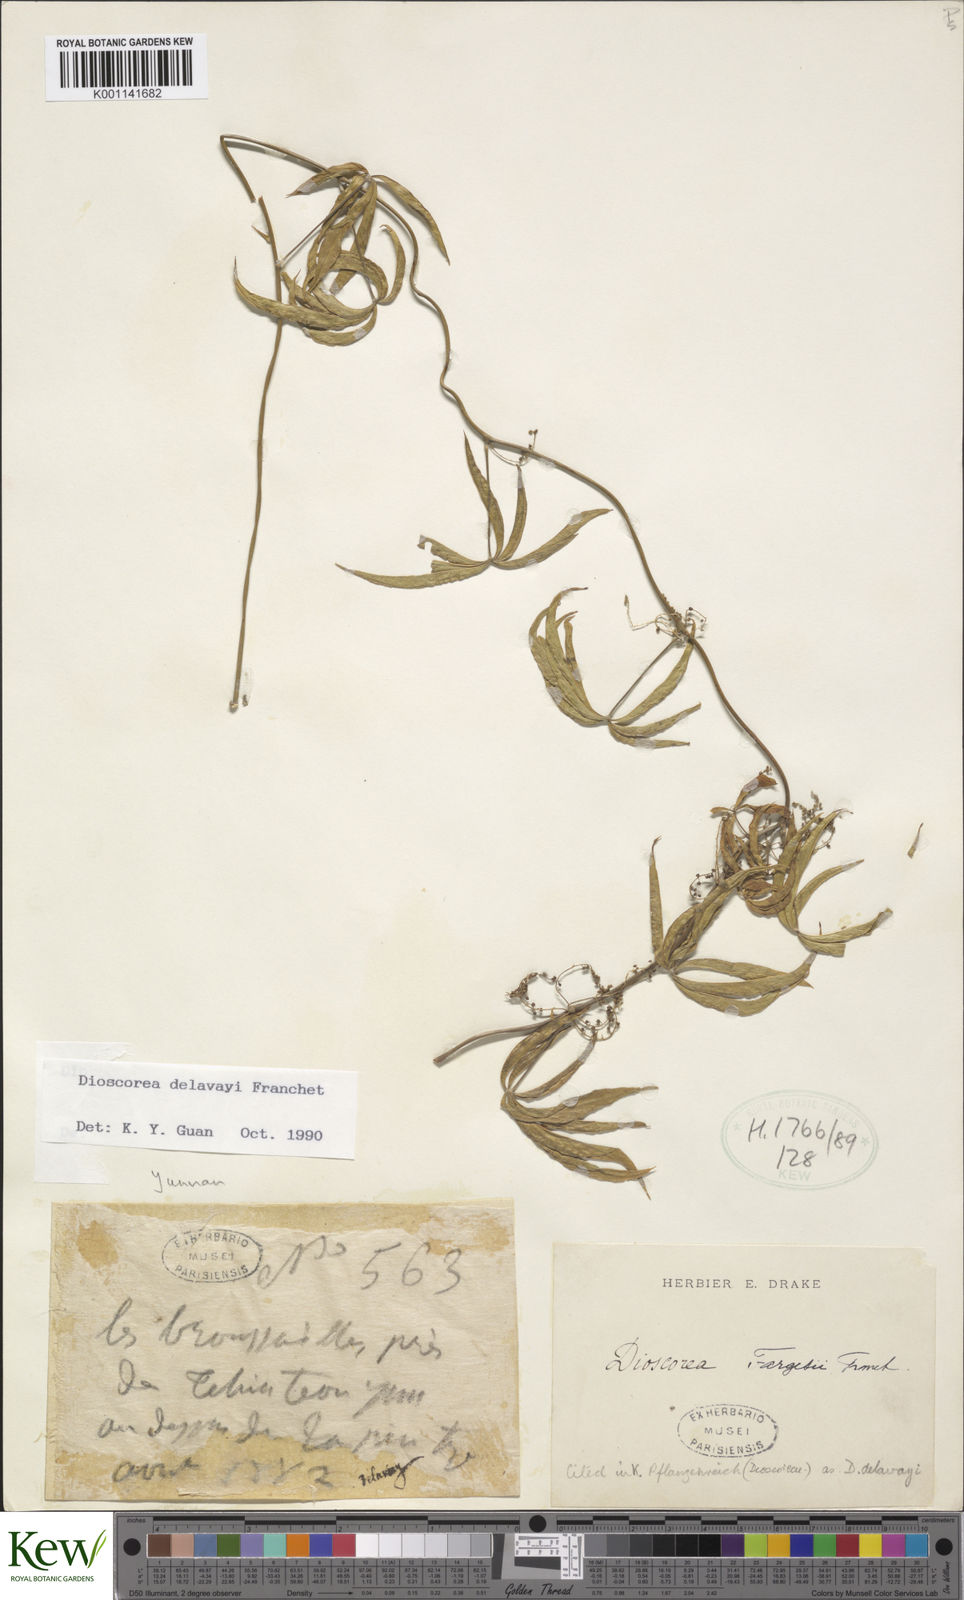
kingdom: Plantae
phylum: Tracheophyta
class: Liliopsida
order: Dioscoreales
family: Dioscoreaceae
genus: Dioscorea
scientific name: Dioscorea kamoonensis
